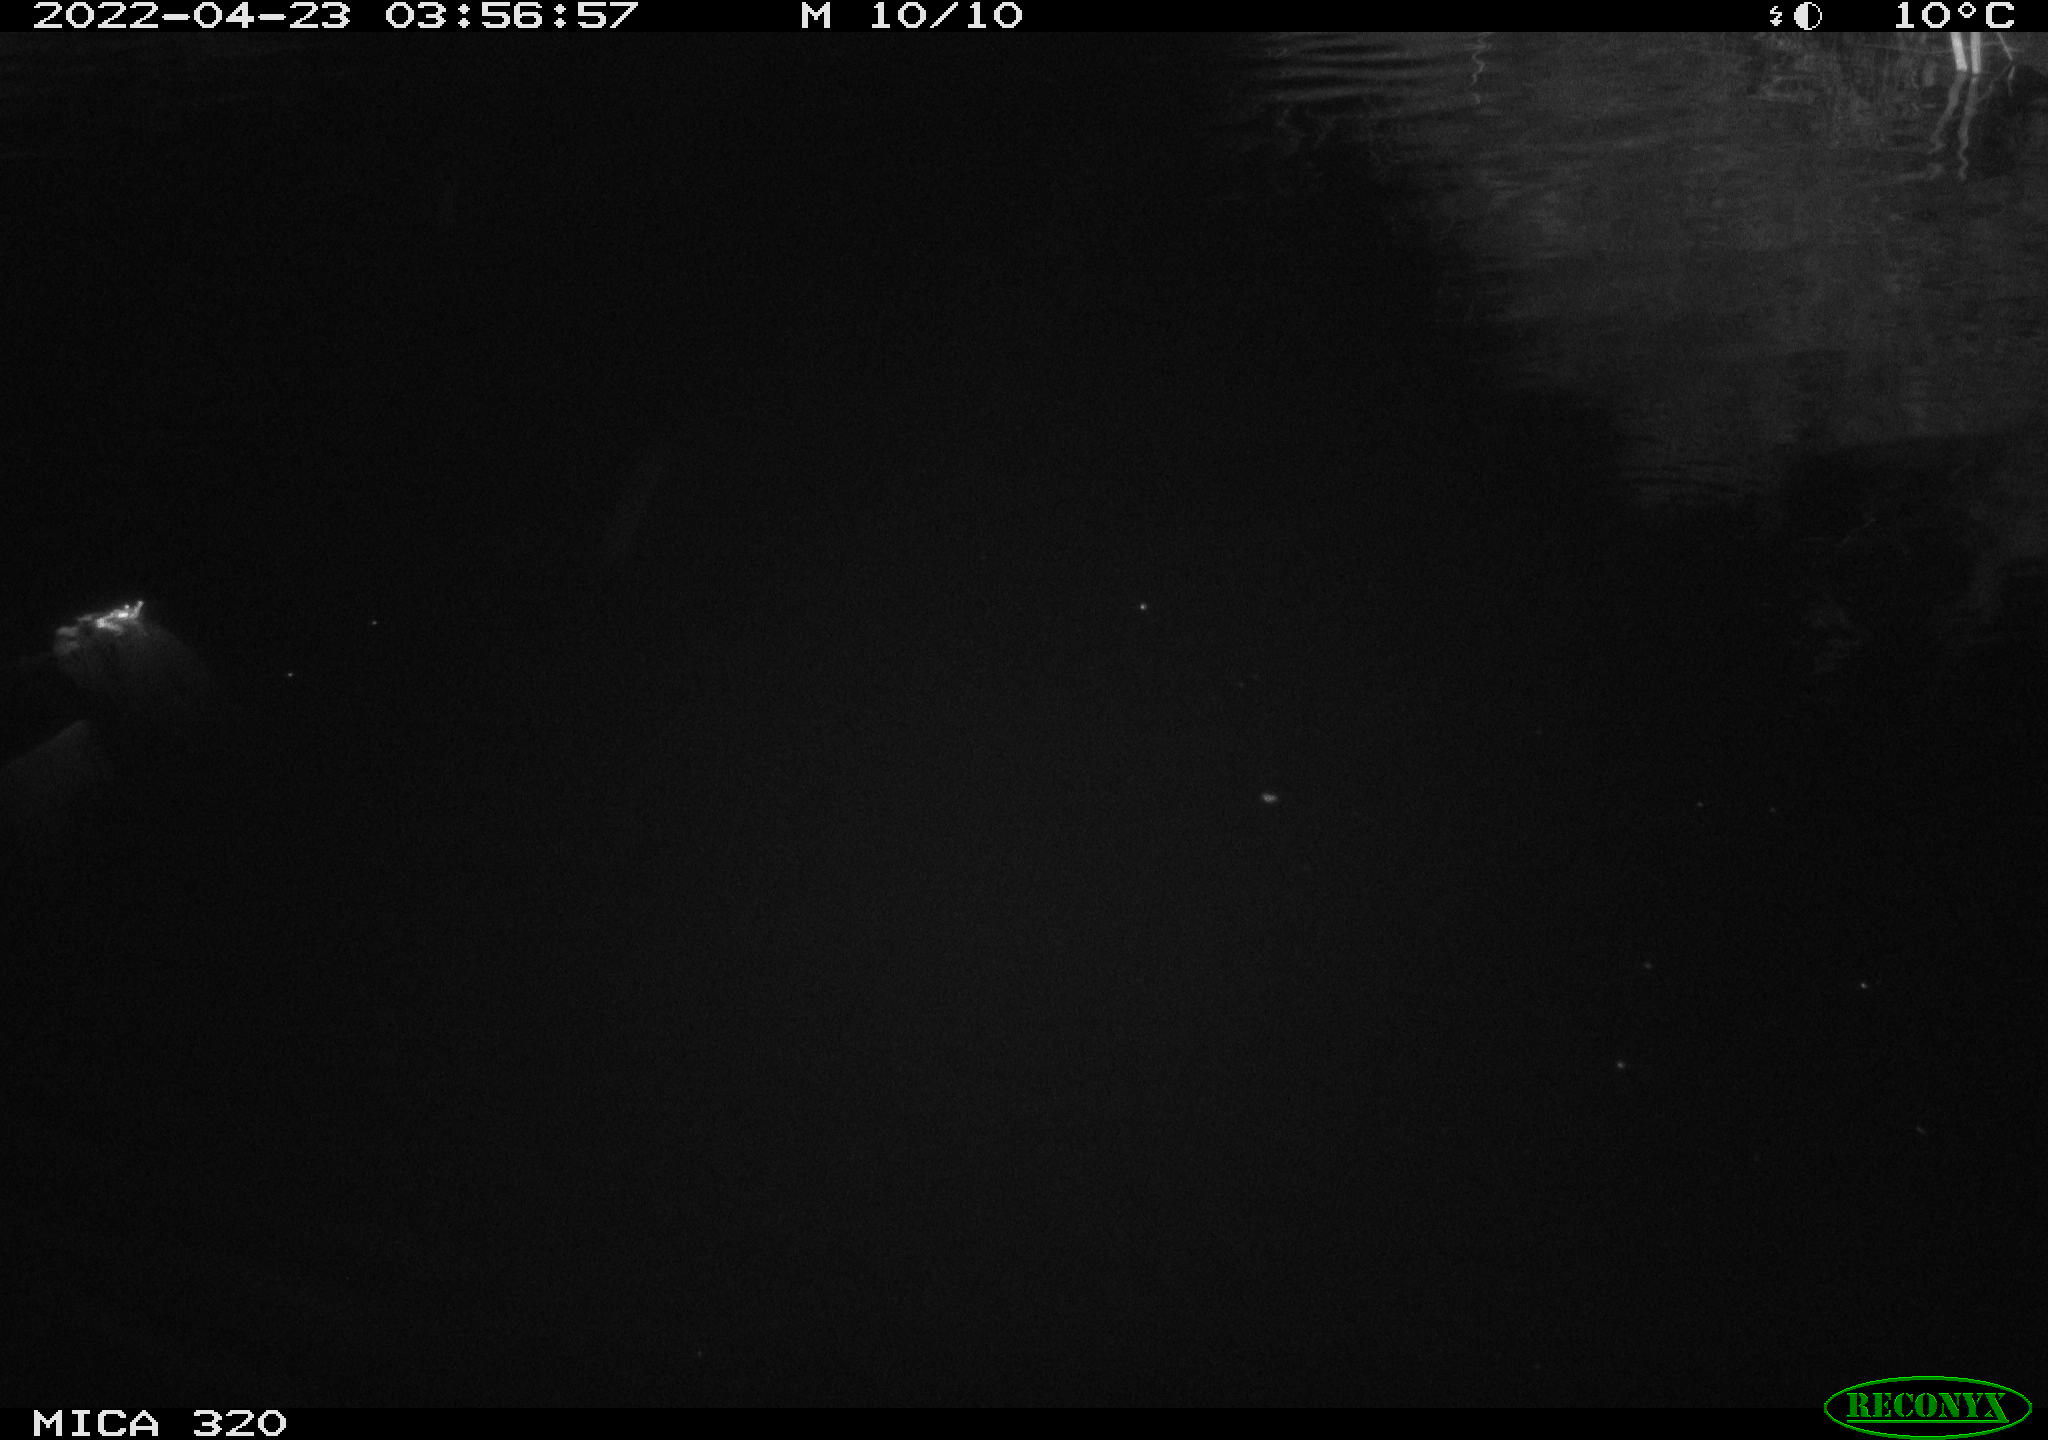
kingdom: Animalia
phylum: Chordata
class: Aves
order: Anseriformes
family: Anatidae
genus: Anas
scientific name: Anas platyrhynchos
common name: Mallard
